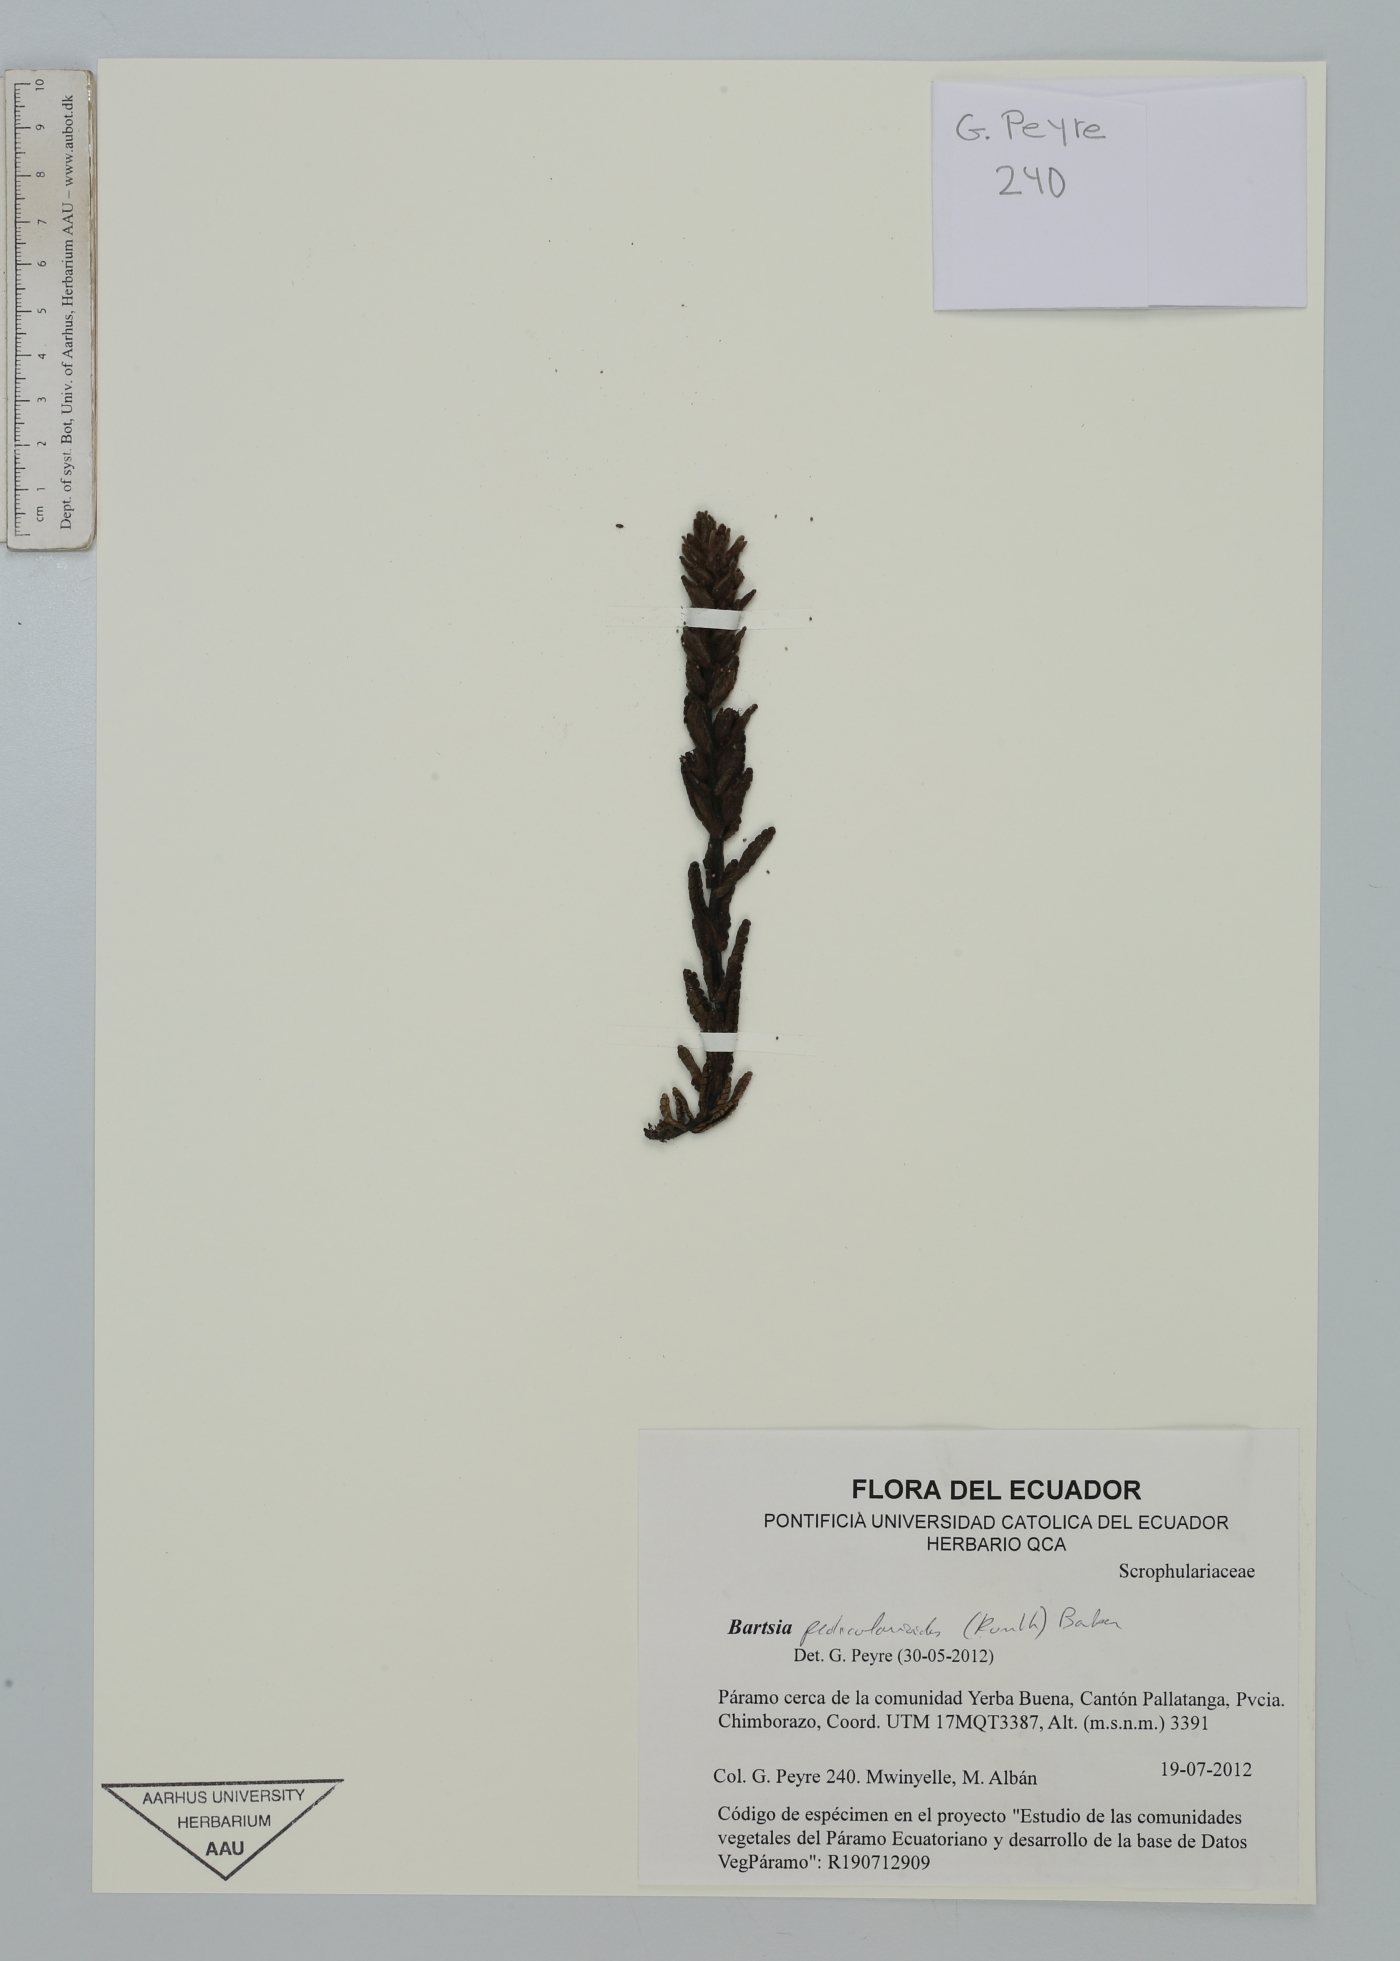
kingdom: Plantae
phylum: Tracheophyta
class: Magnoliopsida
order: Lamiales
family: Orobanchaceae
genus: Neobartsia
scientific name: Neobartsia pedicularoides
